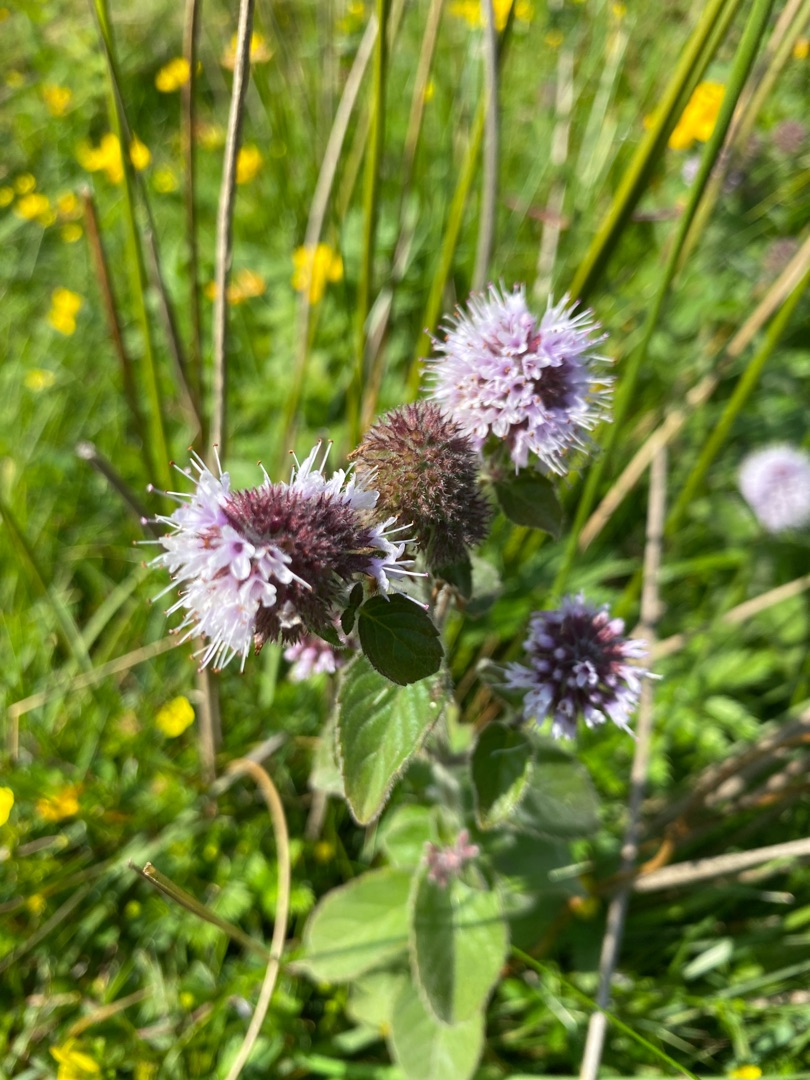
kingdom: Plantae
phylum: Tracheophyta
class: Magnoliopsida
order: Lamiales
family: Lamiaceae
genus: Mentha
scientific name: Mentha aquatica
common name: Vand-mynte
